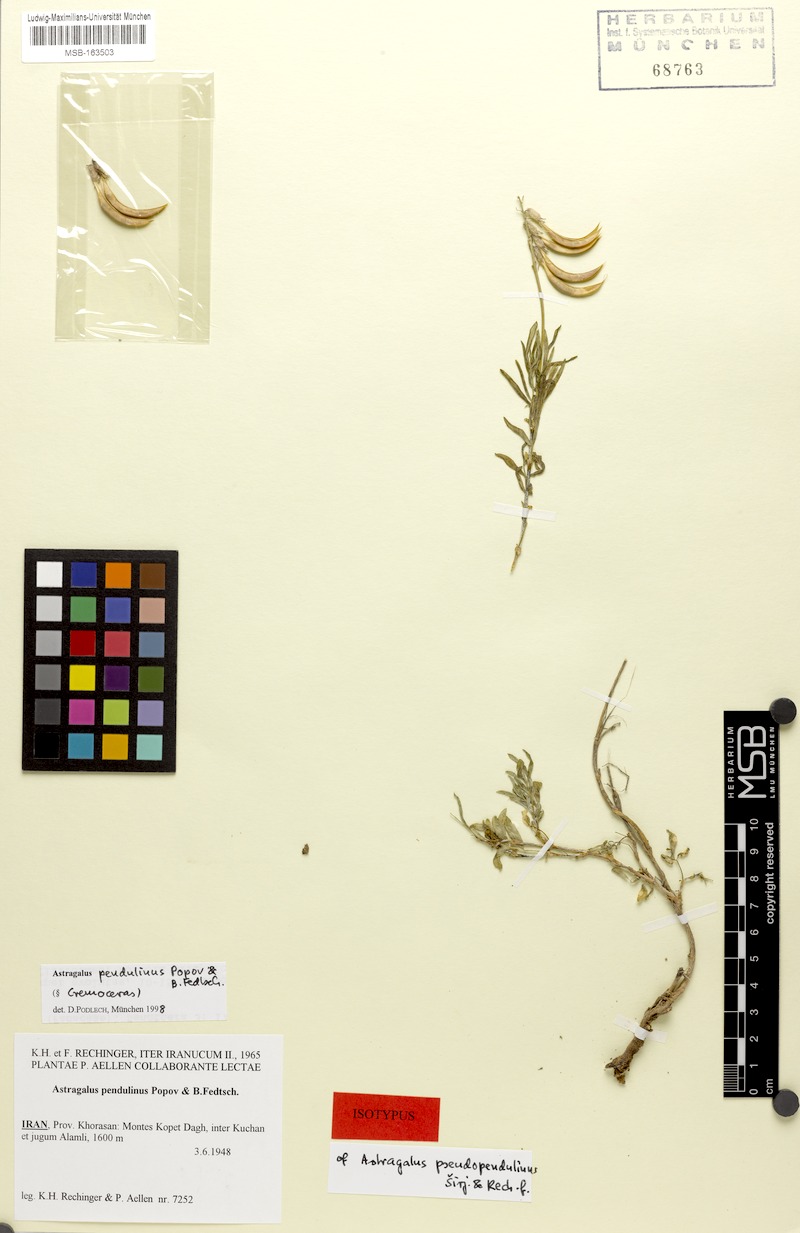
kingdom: Plantae
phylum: Tracheophyta
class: Magnoliopsida
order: Fabales
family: Fabaceae
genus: Astragalus
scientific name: Astragalus pendulinus
